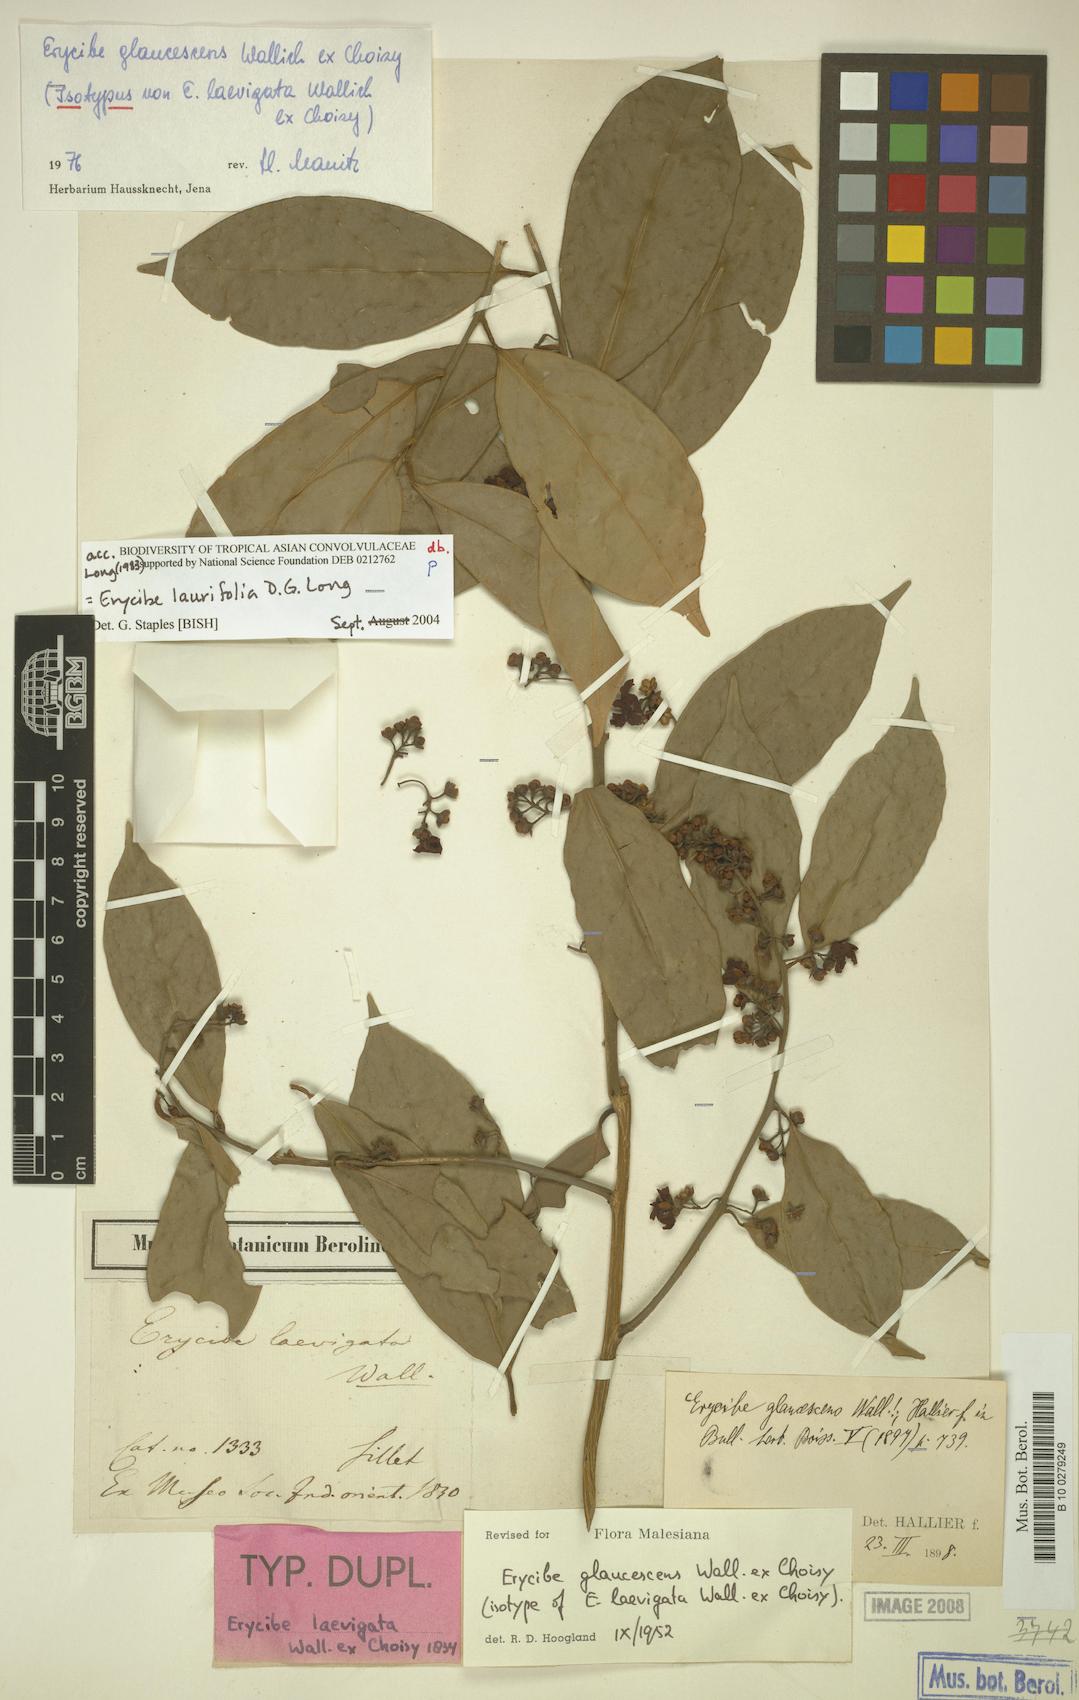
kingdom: Plantae
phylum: Tracheophyta
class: Magnoliopsida
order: Solanales
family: Convolvulaceae
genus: Erycibe
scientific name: Erycibe laurifolia
